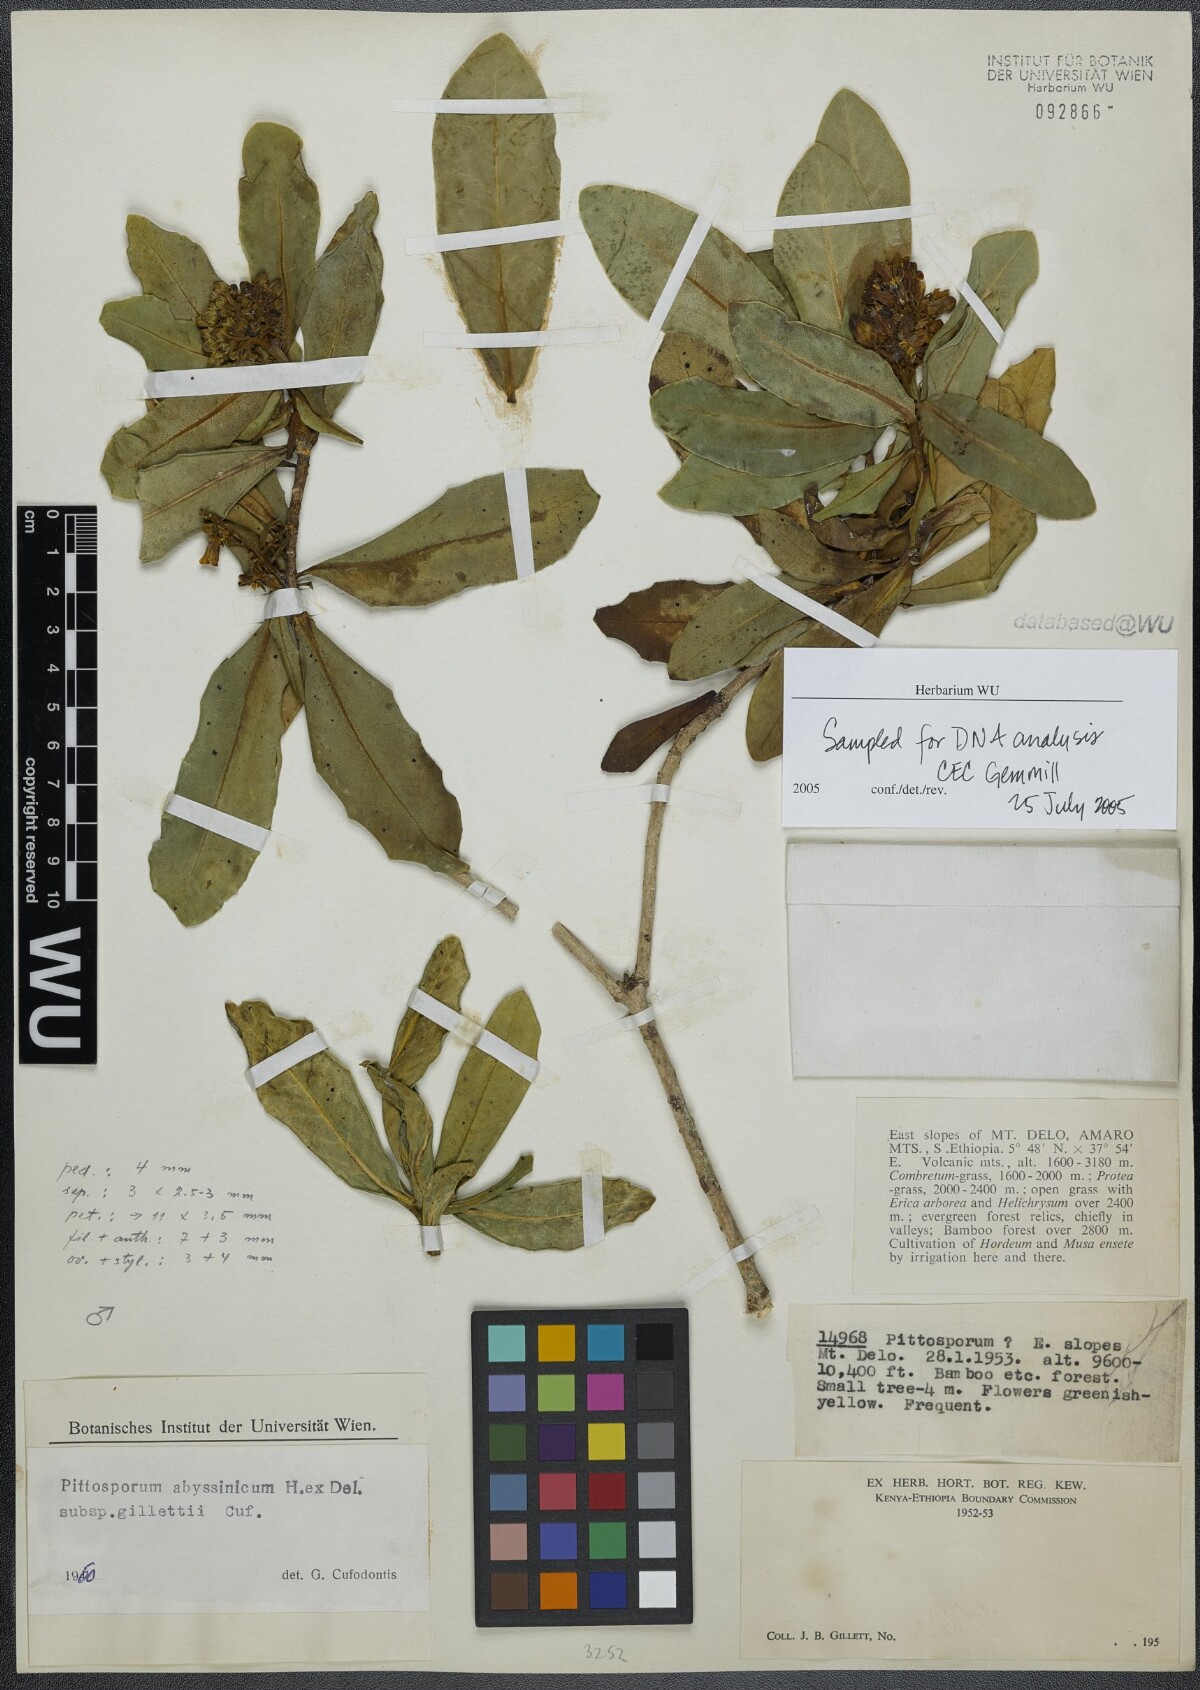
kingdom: Plantae
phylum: Tracheophyta
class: Magnoliopsida
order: Apiales
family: Pittosporaceae
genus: Pittosporum
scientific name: Pittosporum abyssinicum
